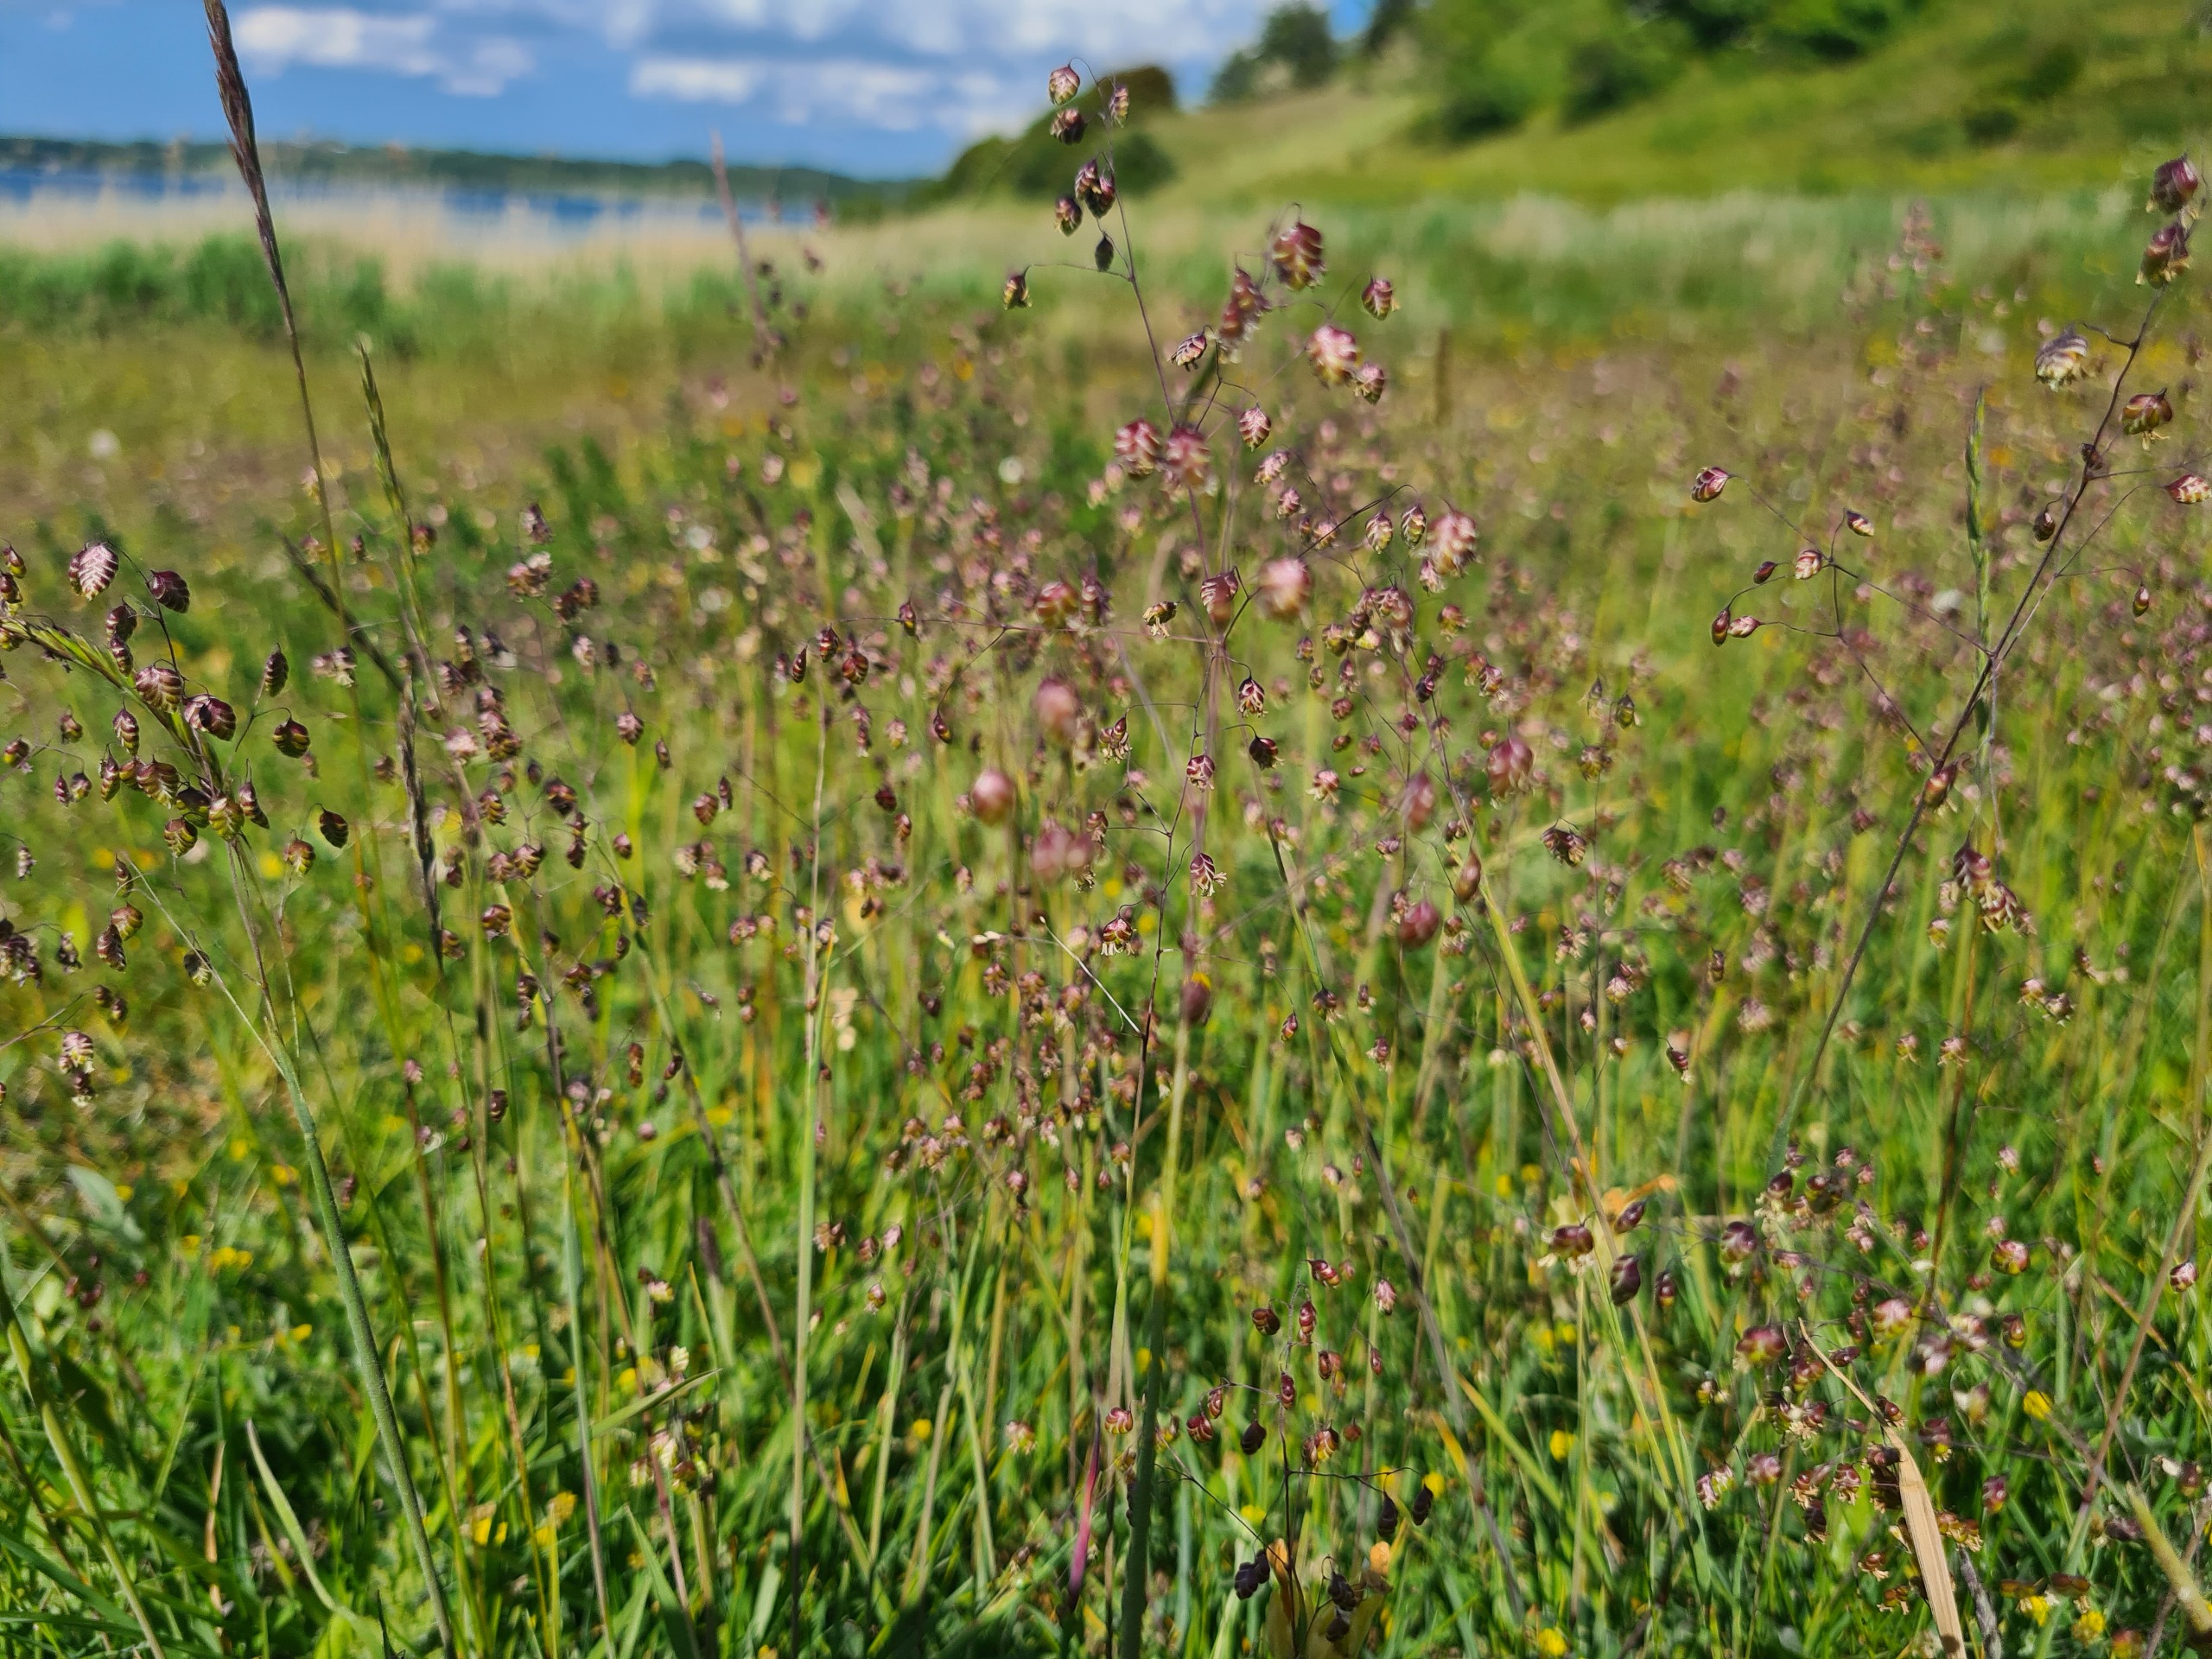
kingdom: Plantae
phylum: Tracheophyta
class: Liliopsida
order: Poales
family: Poaceae
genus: Briza
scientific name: Briza media
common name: Hjertegræs
